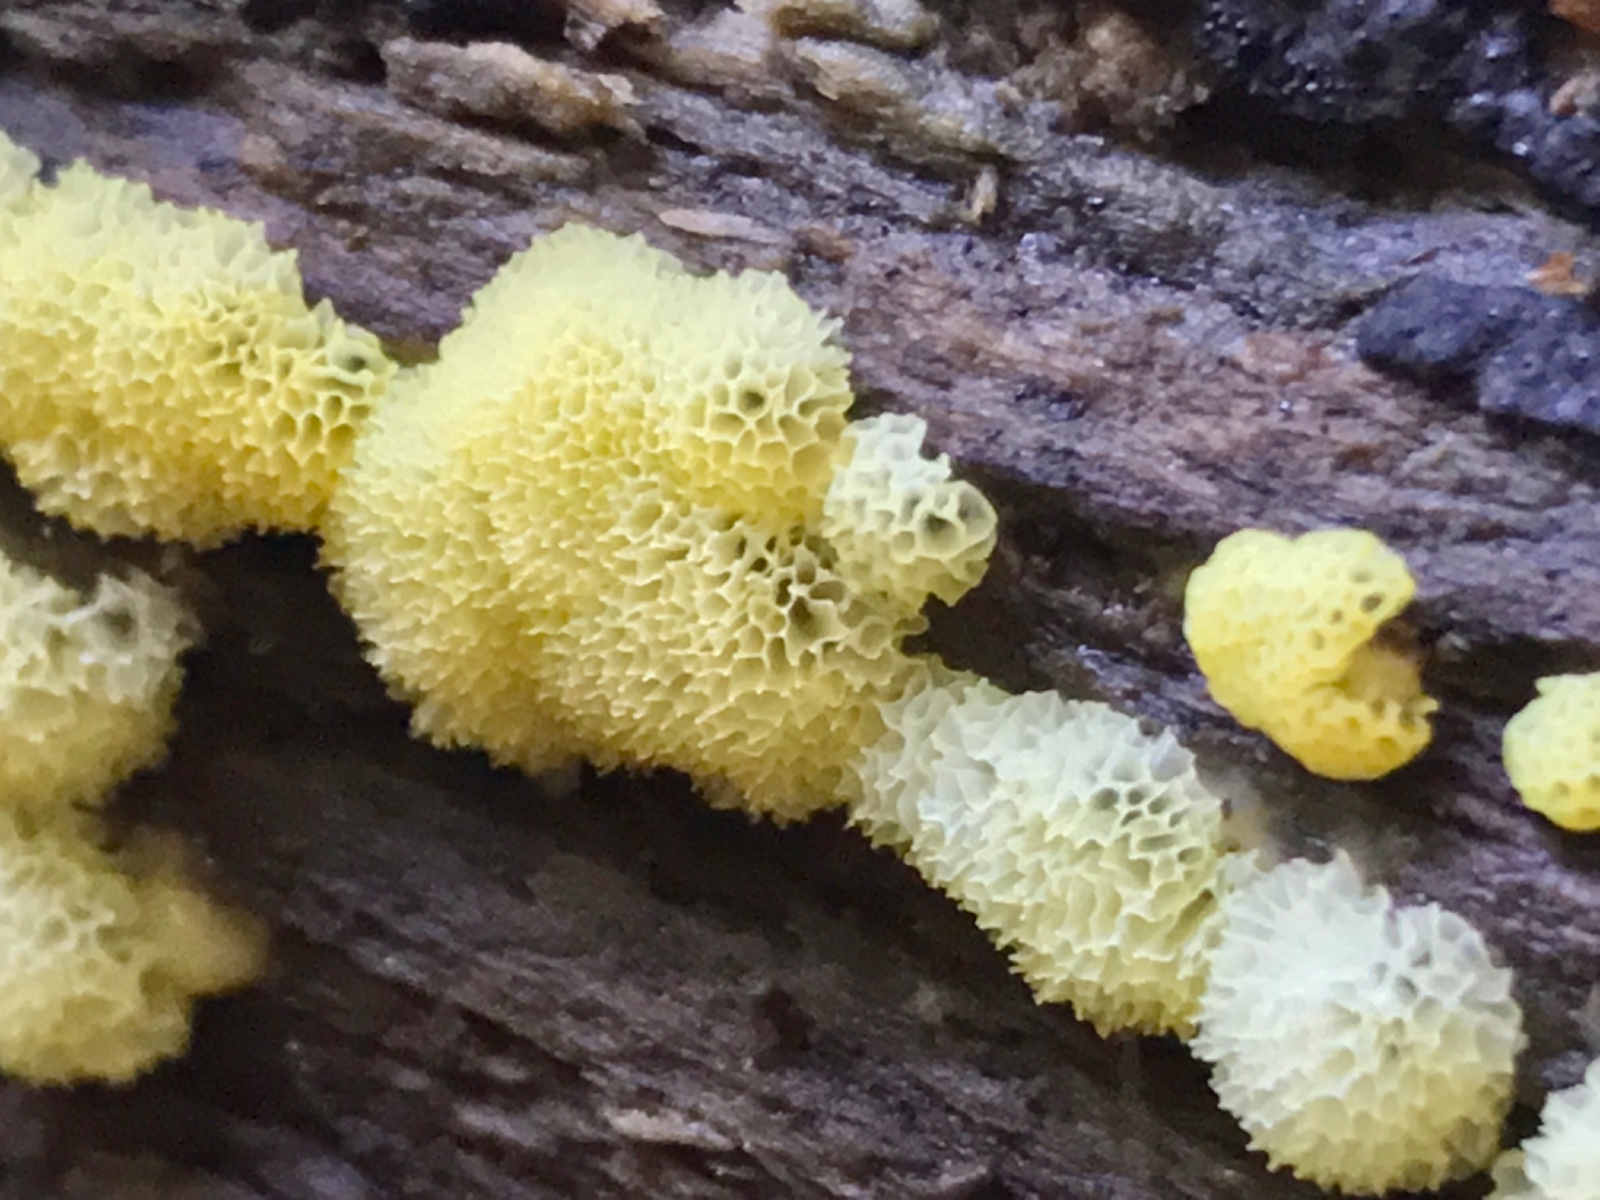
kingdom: Protozoa
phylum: Mycetozoa
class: Protosteliomycetes
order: Ceratiomyxales
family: Ceratiomyxaceae
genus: Ceratiomyxa
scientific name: Ceratiomyxa fruticulosa
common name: Honeycomb coral slime mold
